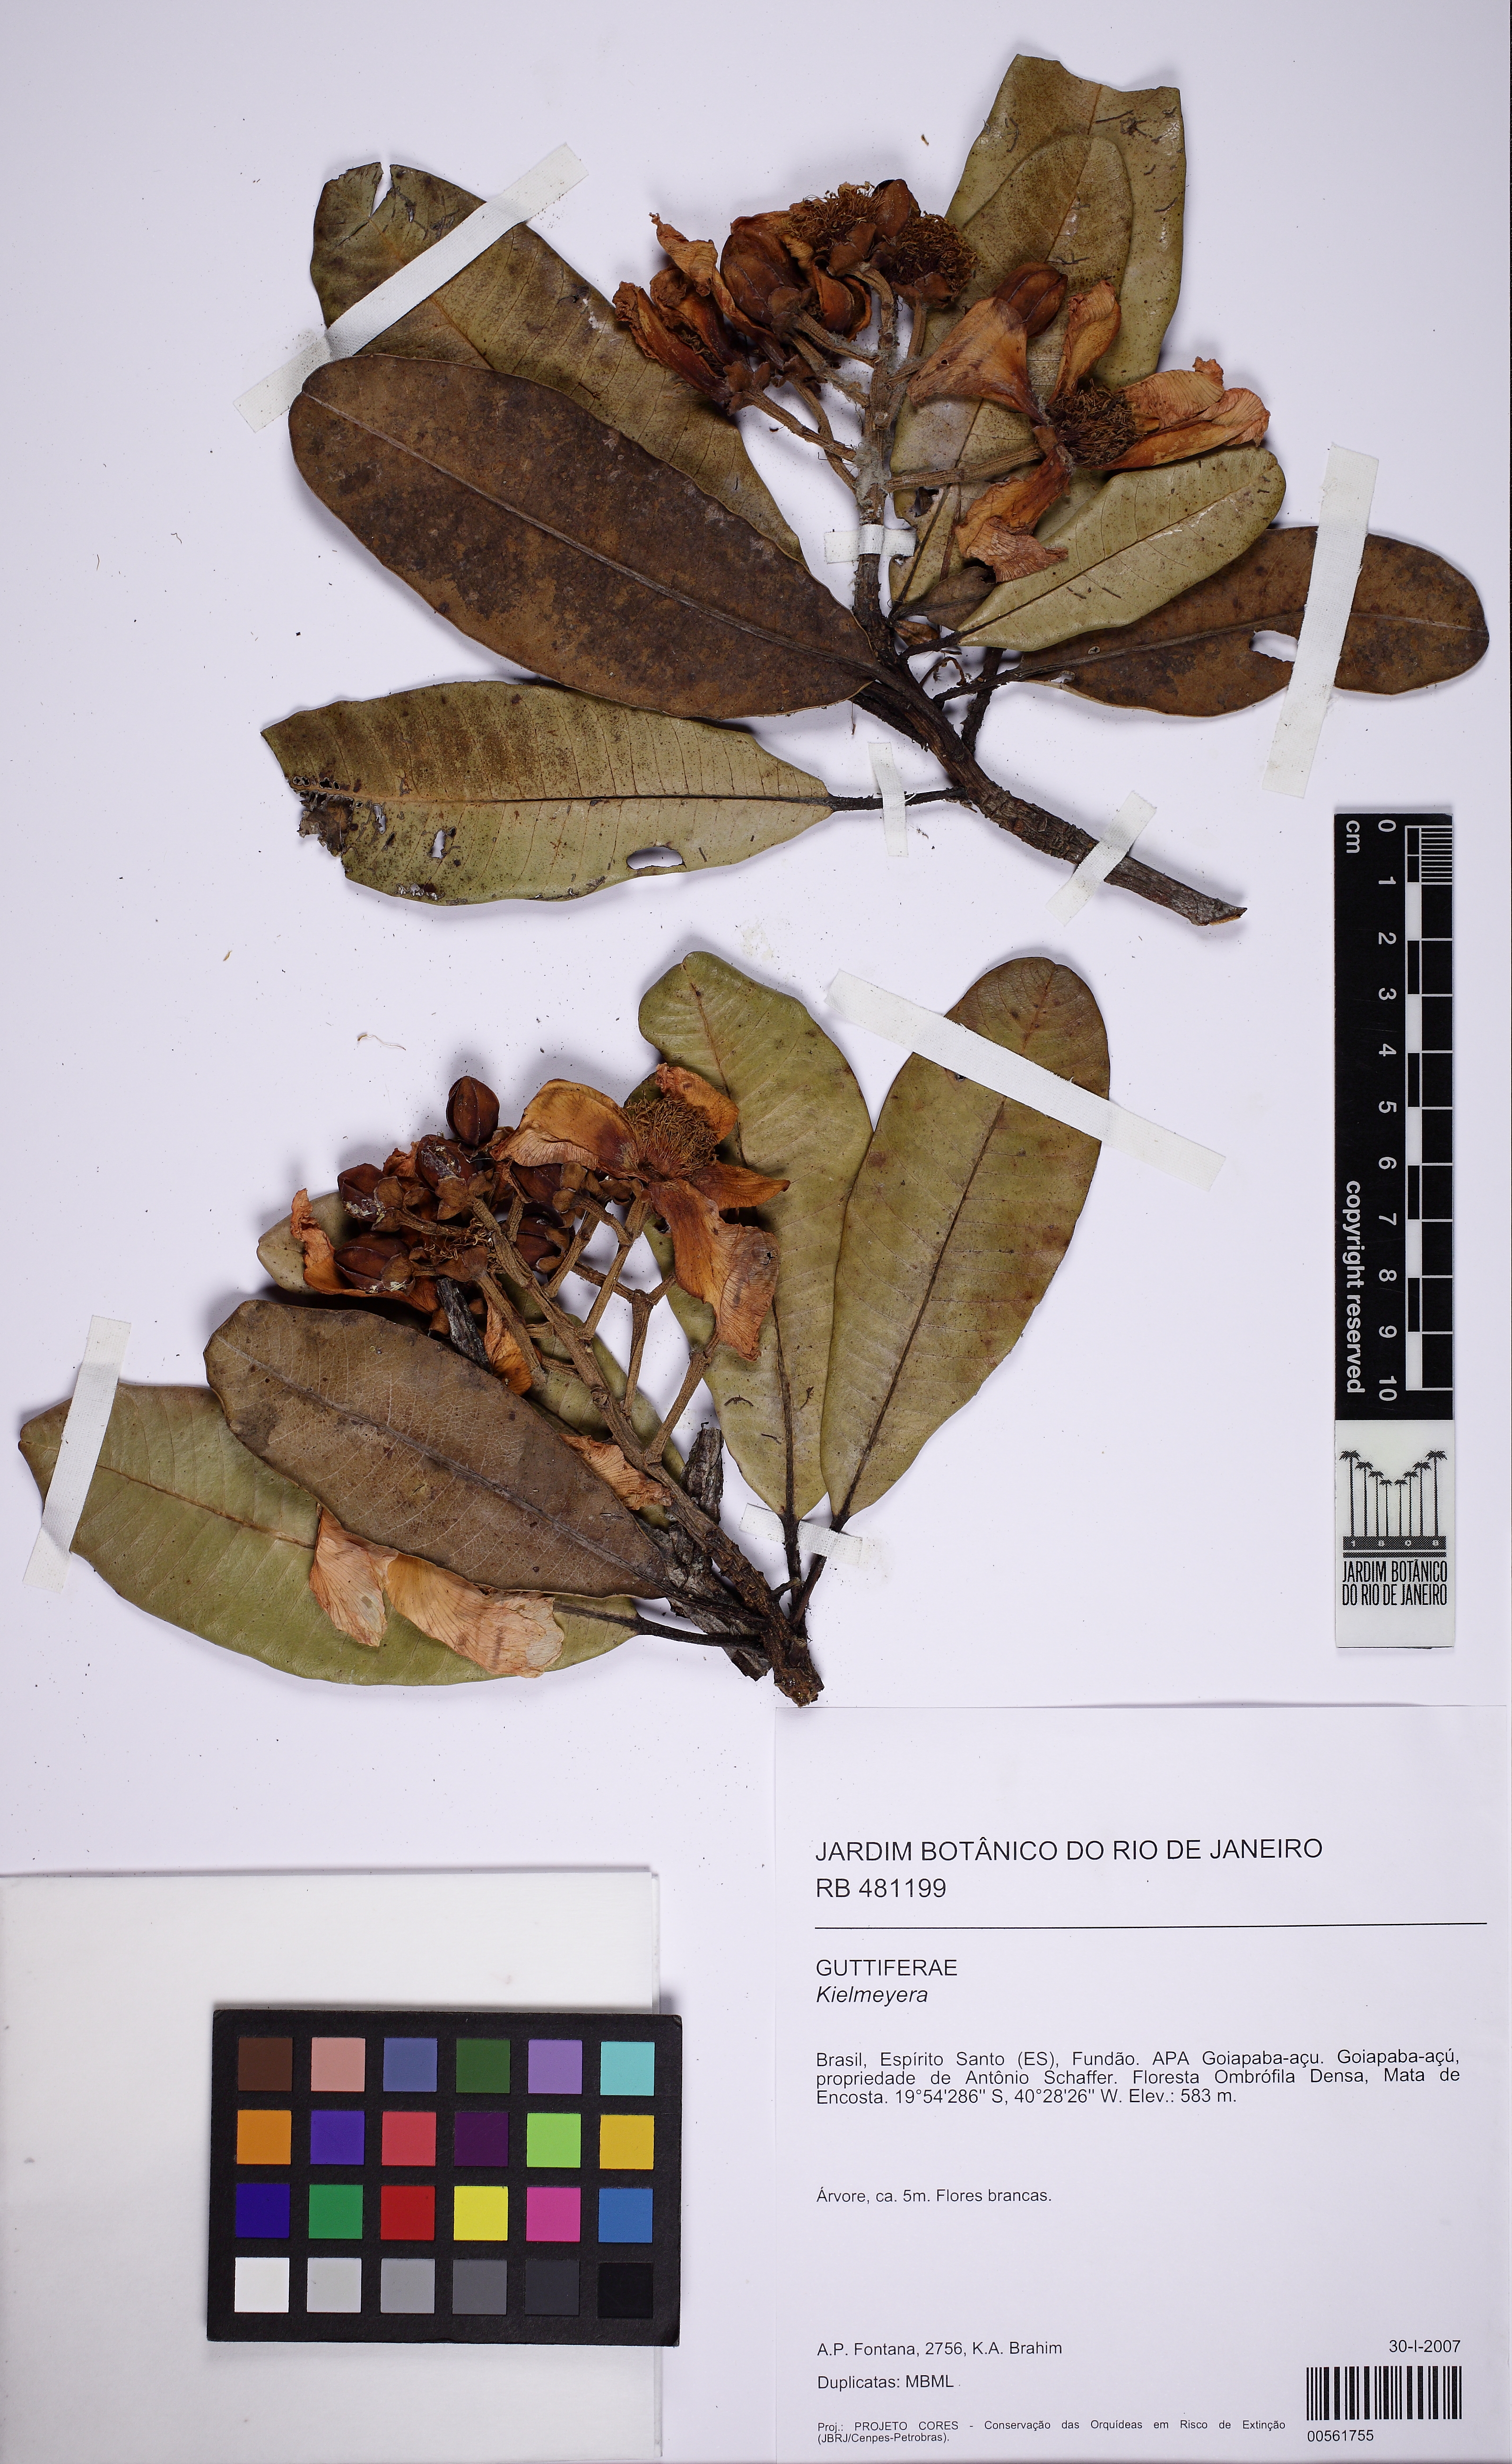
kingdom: Plantae
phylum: Tracheophyta
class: Magnoliopsida
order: Malpighiales
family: Calophyllaceae
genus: Kielmeyera
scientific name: Kielmeyera
